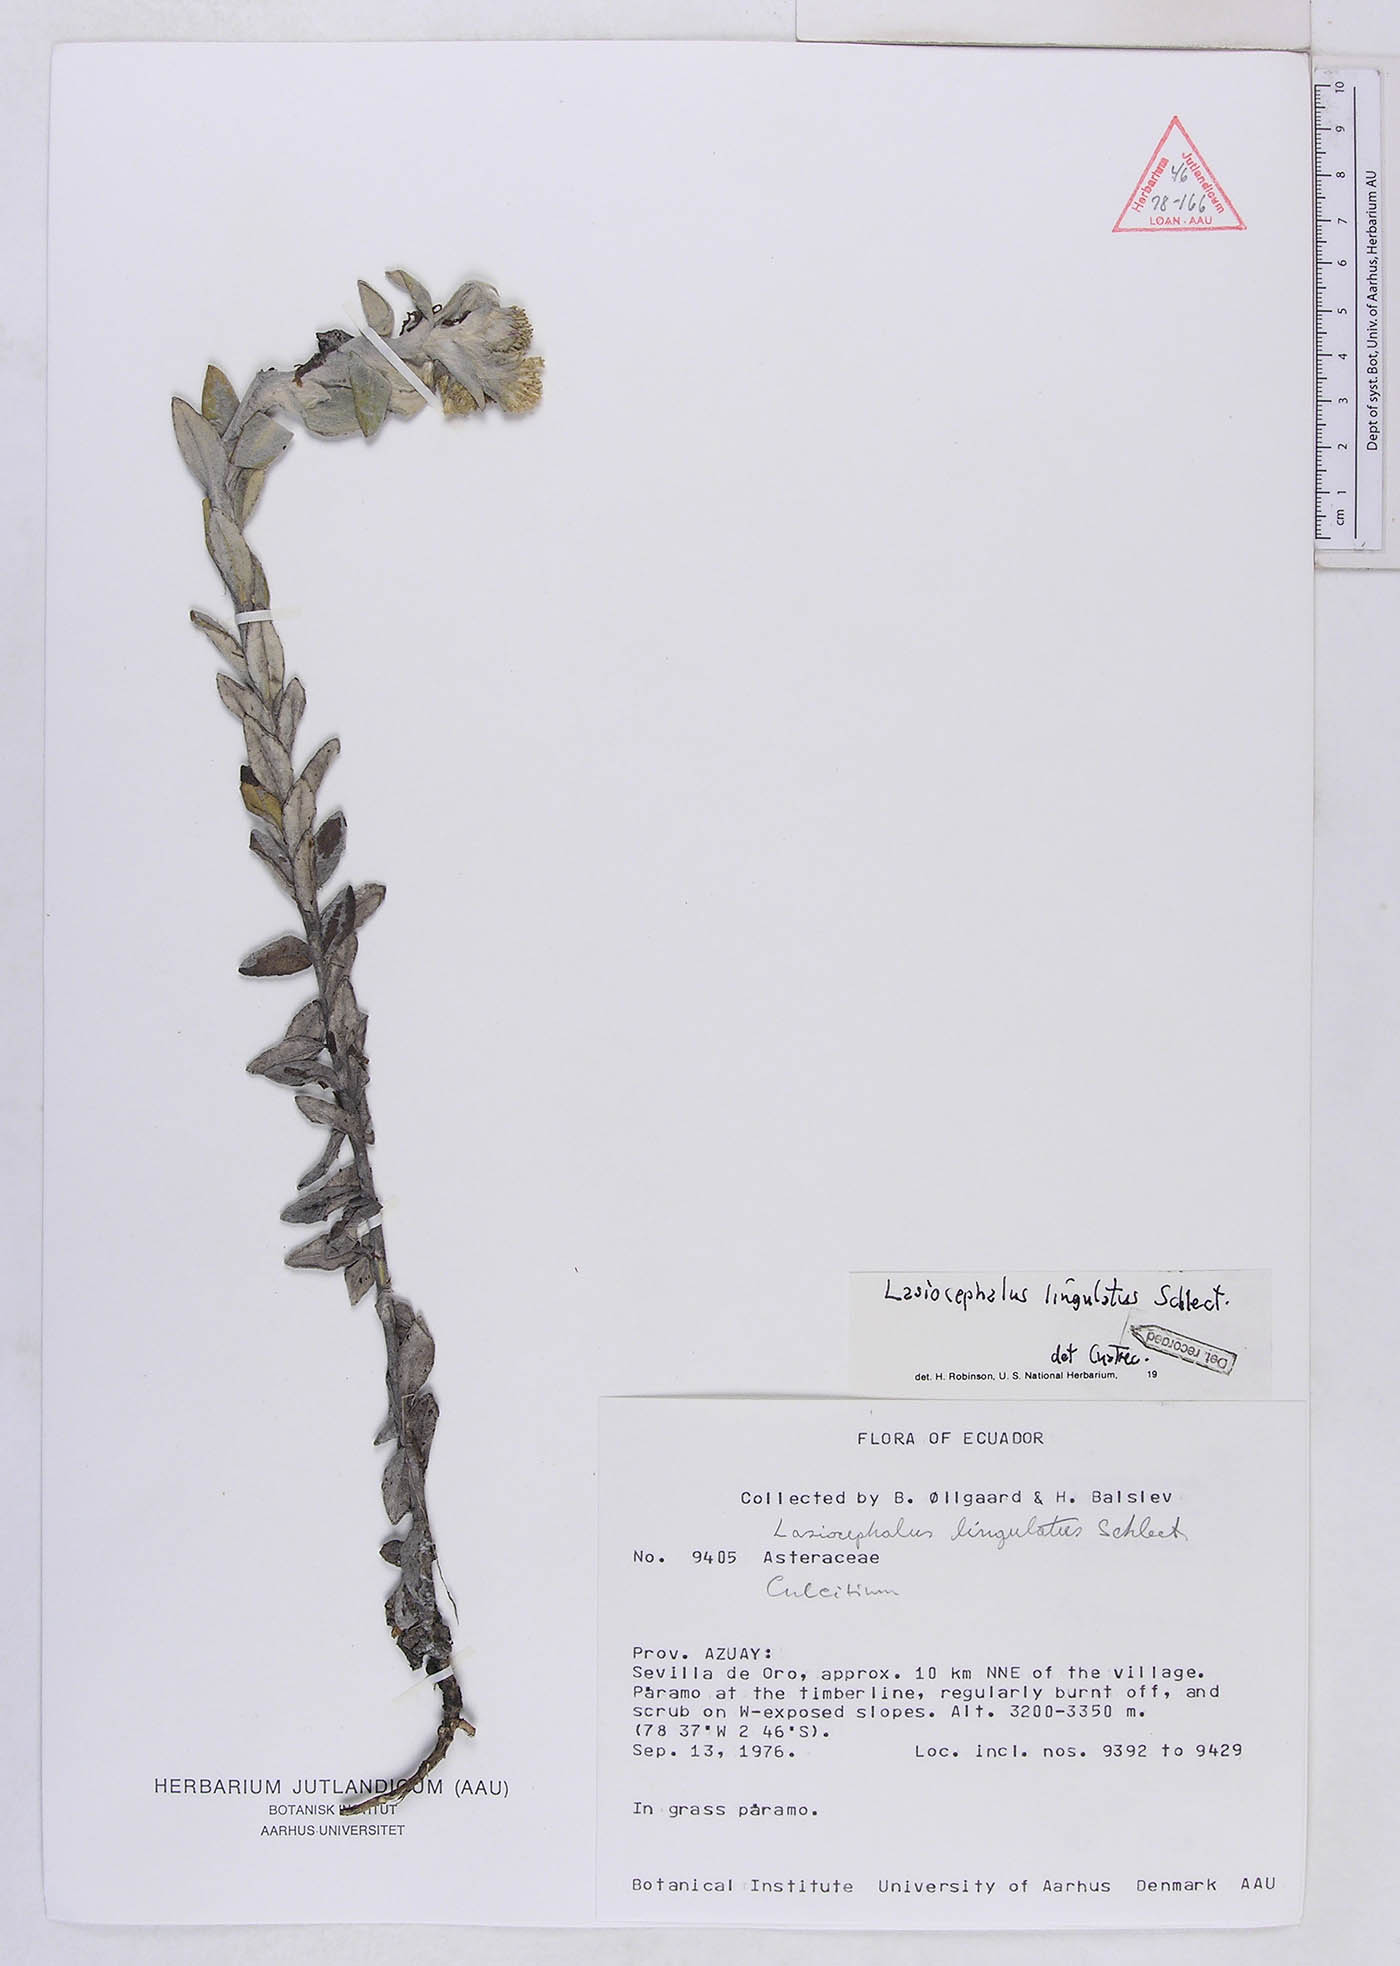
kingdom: Plantae
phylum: Tracheophyta
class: Magnoliopsida
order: Asterales
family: Asteraceae
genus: Lasiocephalus
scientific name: Lasiocephalus lingulatus
